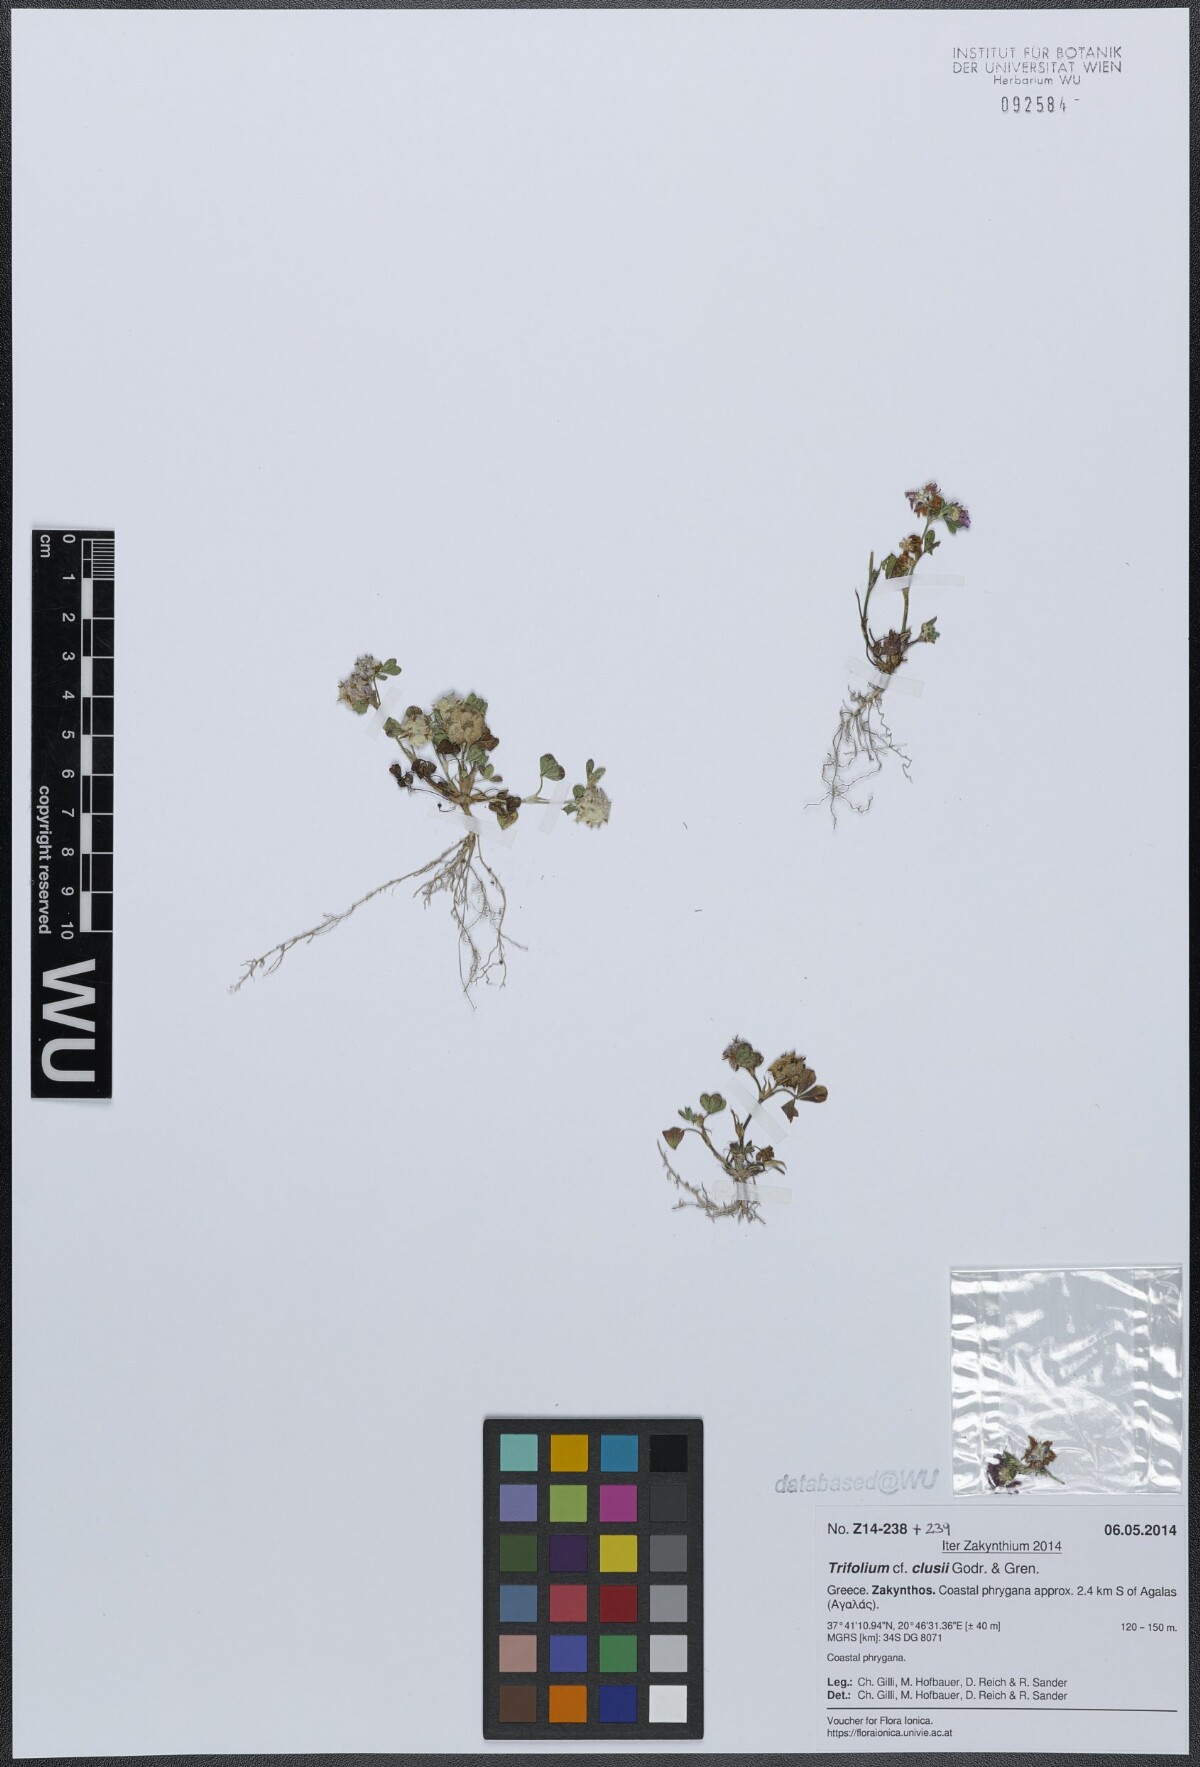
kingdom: Plantae
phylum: Tracheophyta
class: Magnoliopsida
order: Fabales
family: Fabaceae
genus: Trifolium
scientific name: Trifolium clusii
